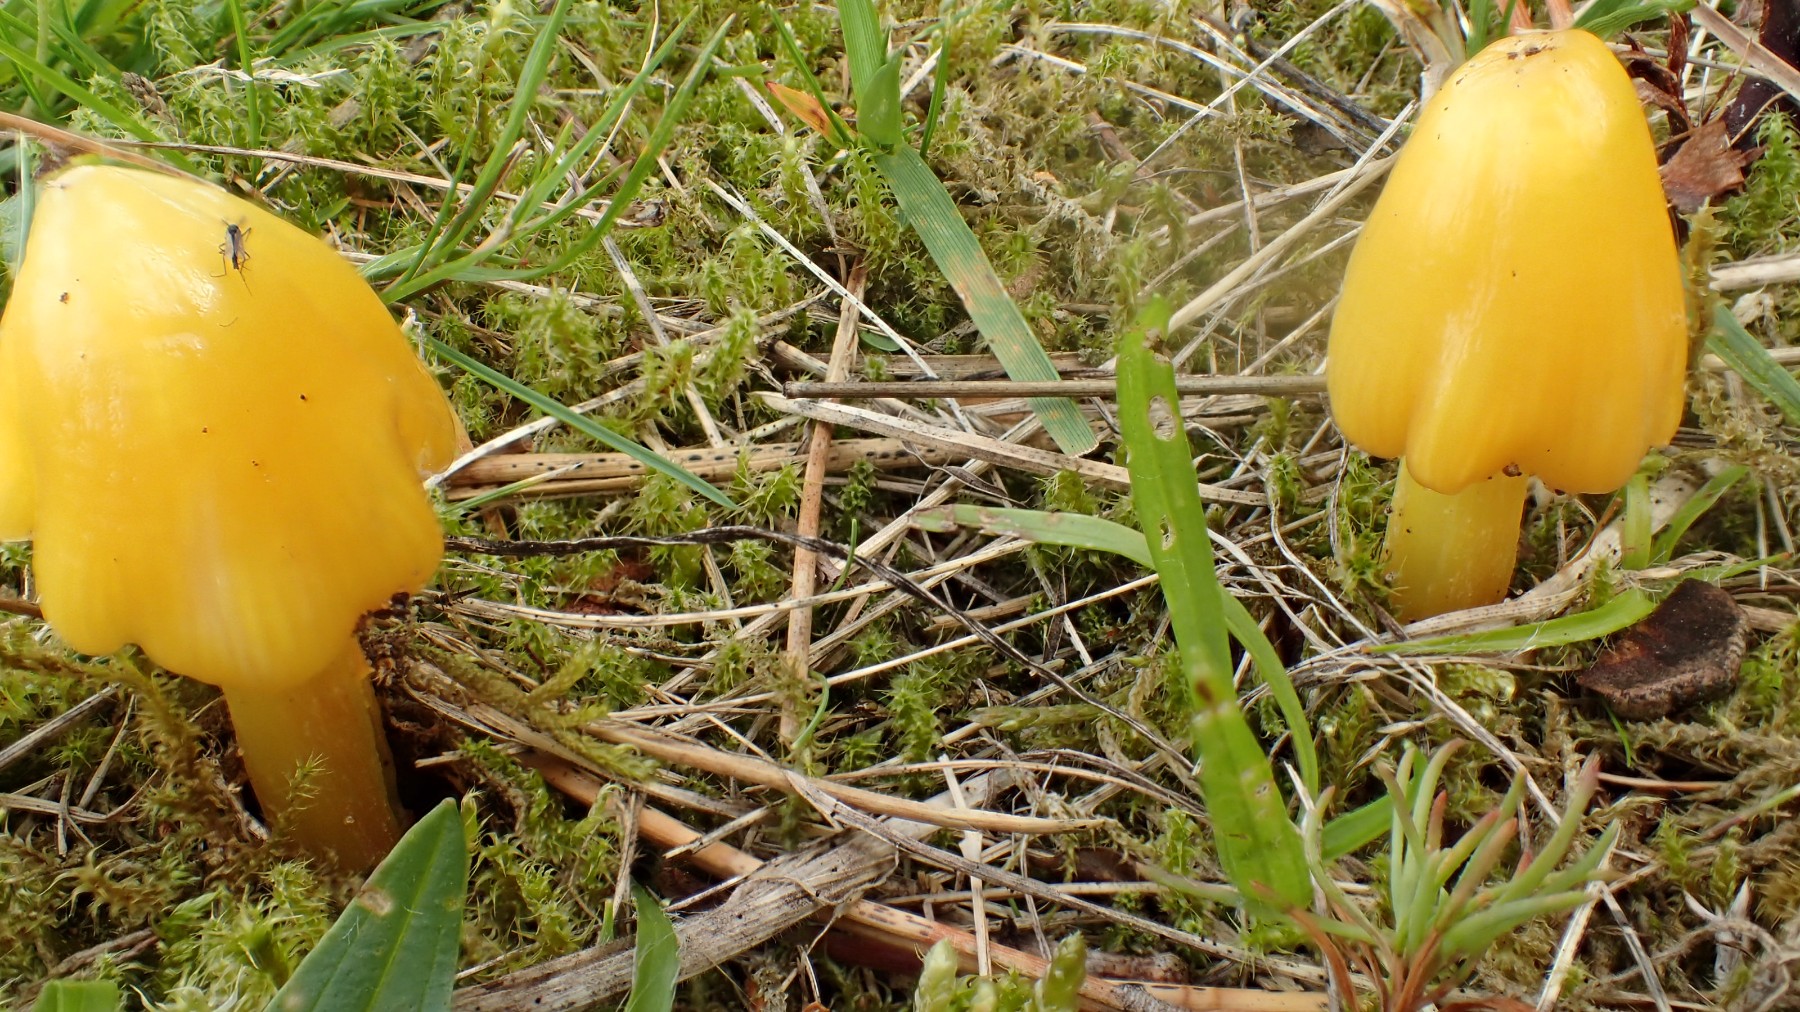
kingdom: Fungi
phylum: Basidiomycota
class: Agaricomycetes
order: Agaricales
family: Hygrophoraceae
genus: Hygrocybe
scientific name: Hygrocybe acutoconica
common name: spidspuklet vokshat
